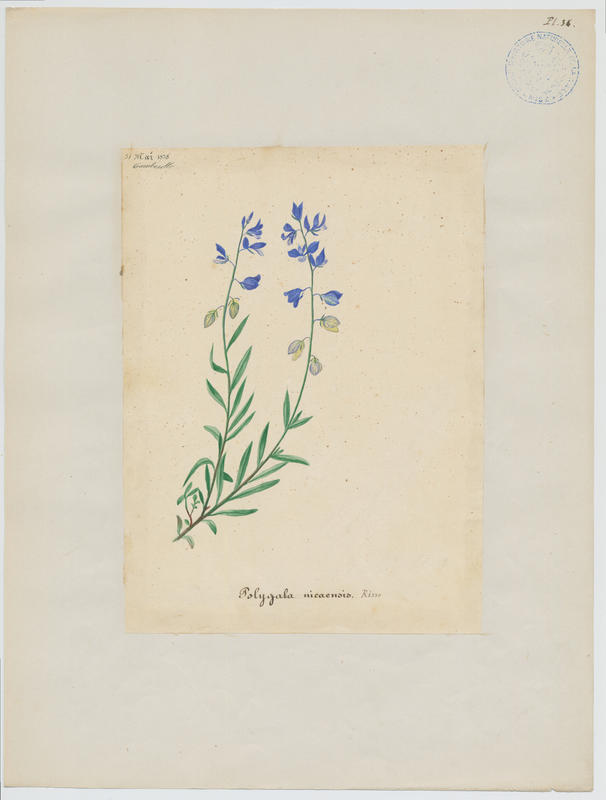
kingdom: Plantae
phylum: Tracheophyta
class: Magnoliopsida
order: Fabales
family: Polygalaceae
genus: Polygala
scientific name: Polygala nicaeensis
